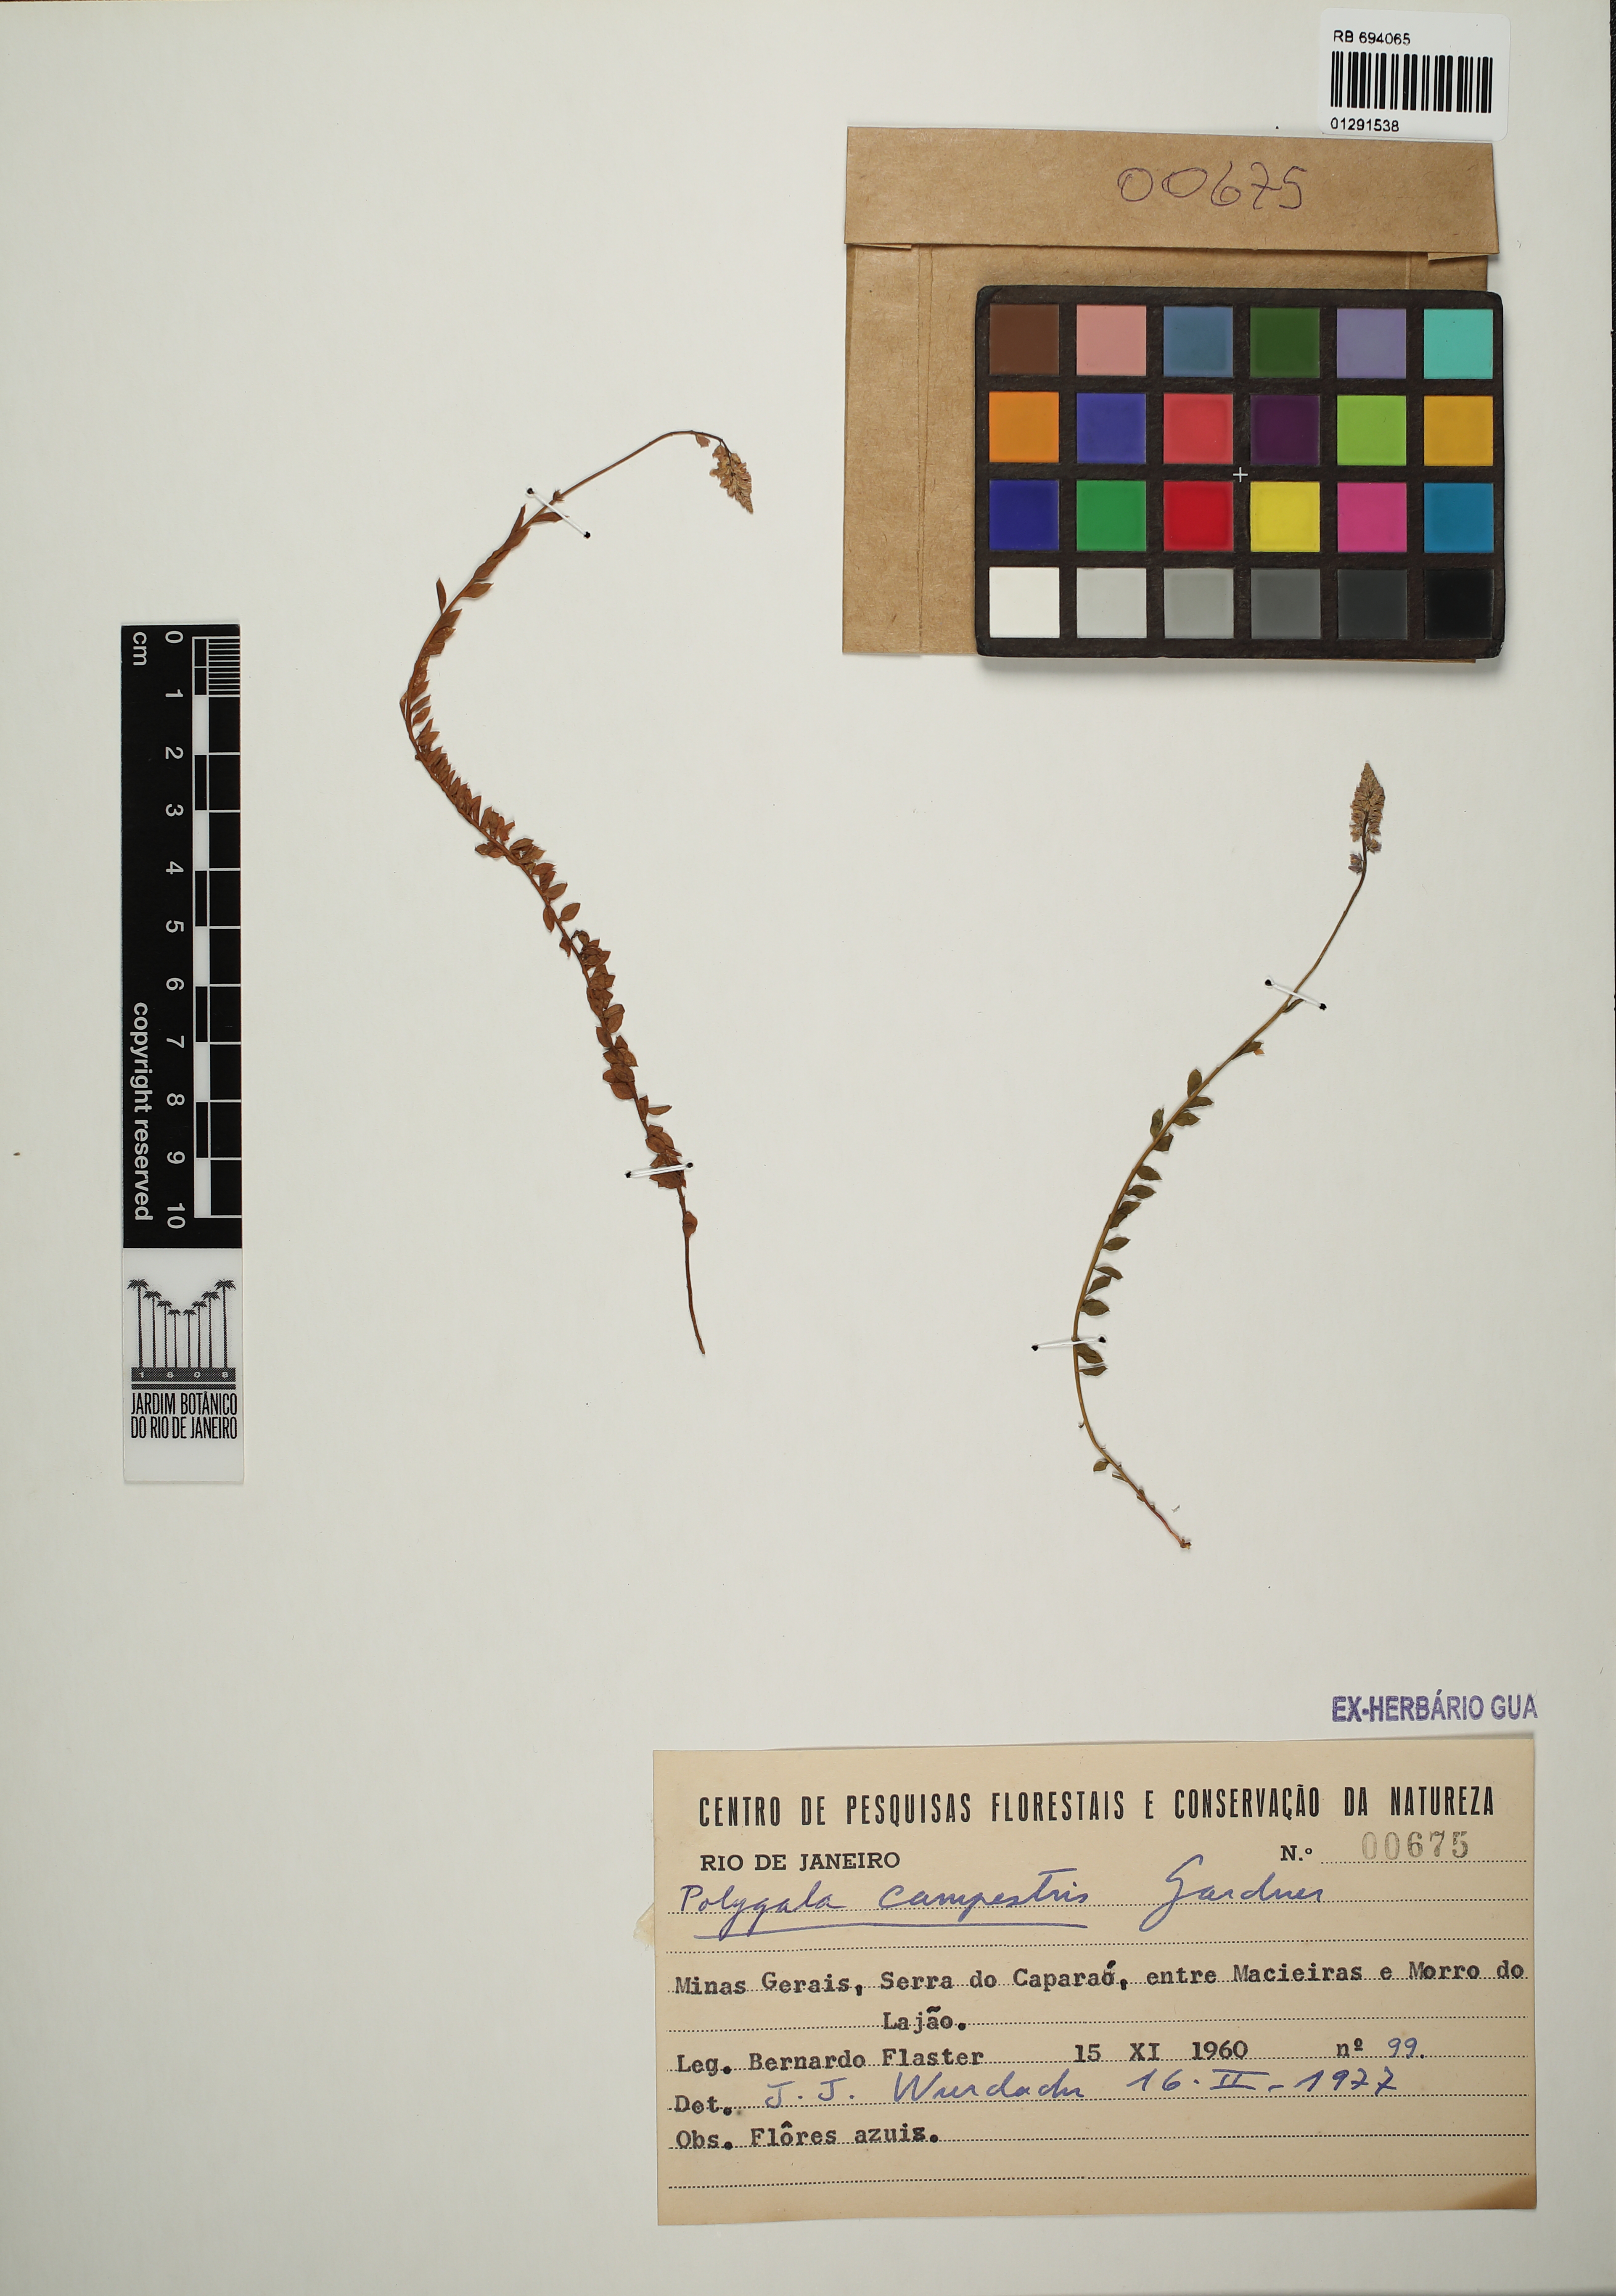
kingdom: Plantae
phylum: Tracheophyta
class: Magnoliopsida
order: Fabales
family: Polygalaceae
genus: Polygala
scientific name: Polygala campestris
